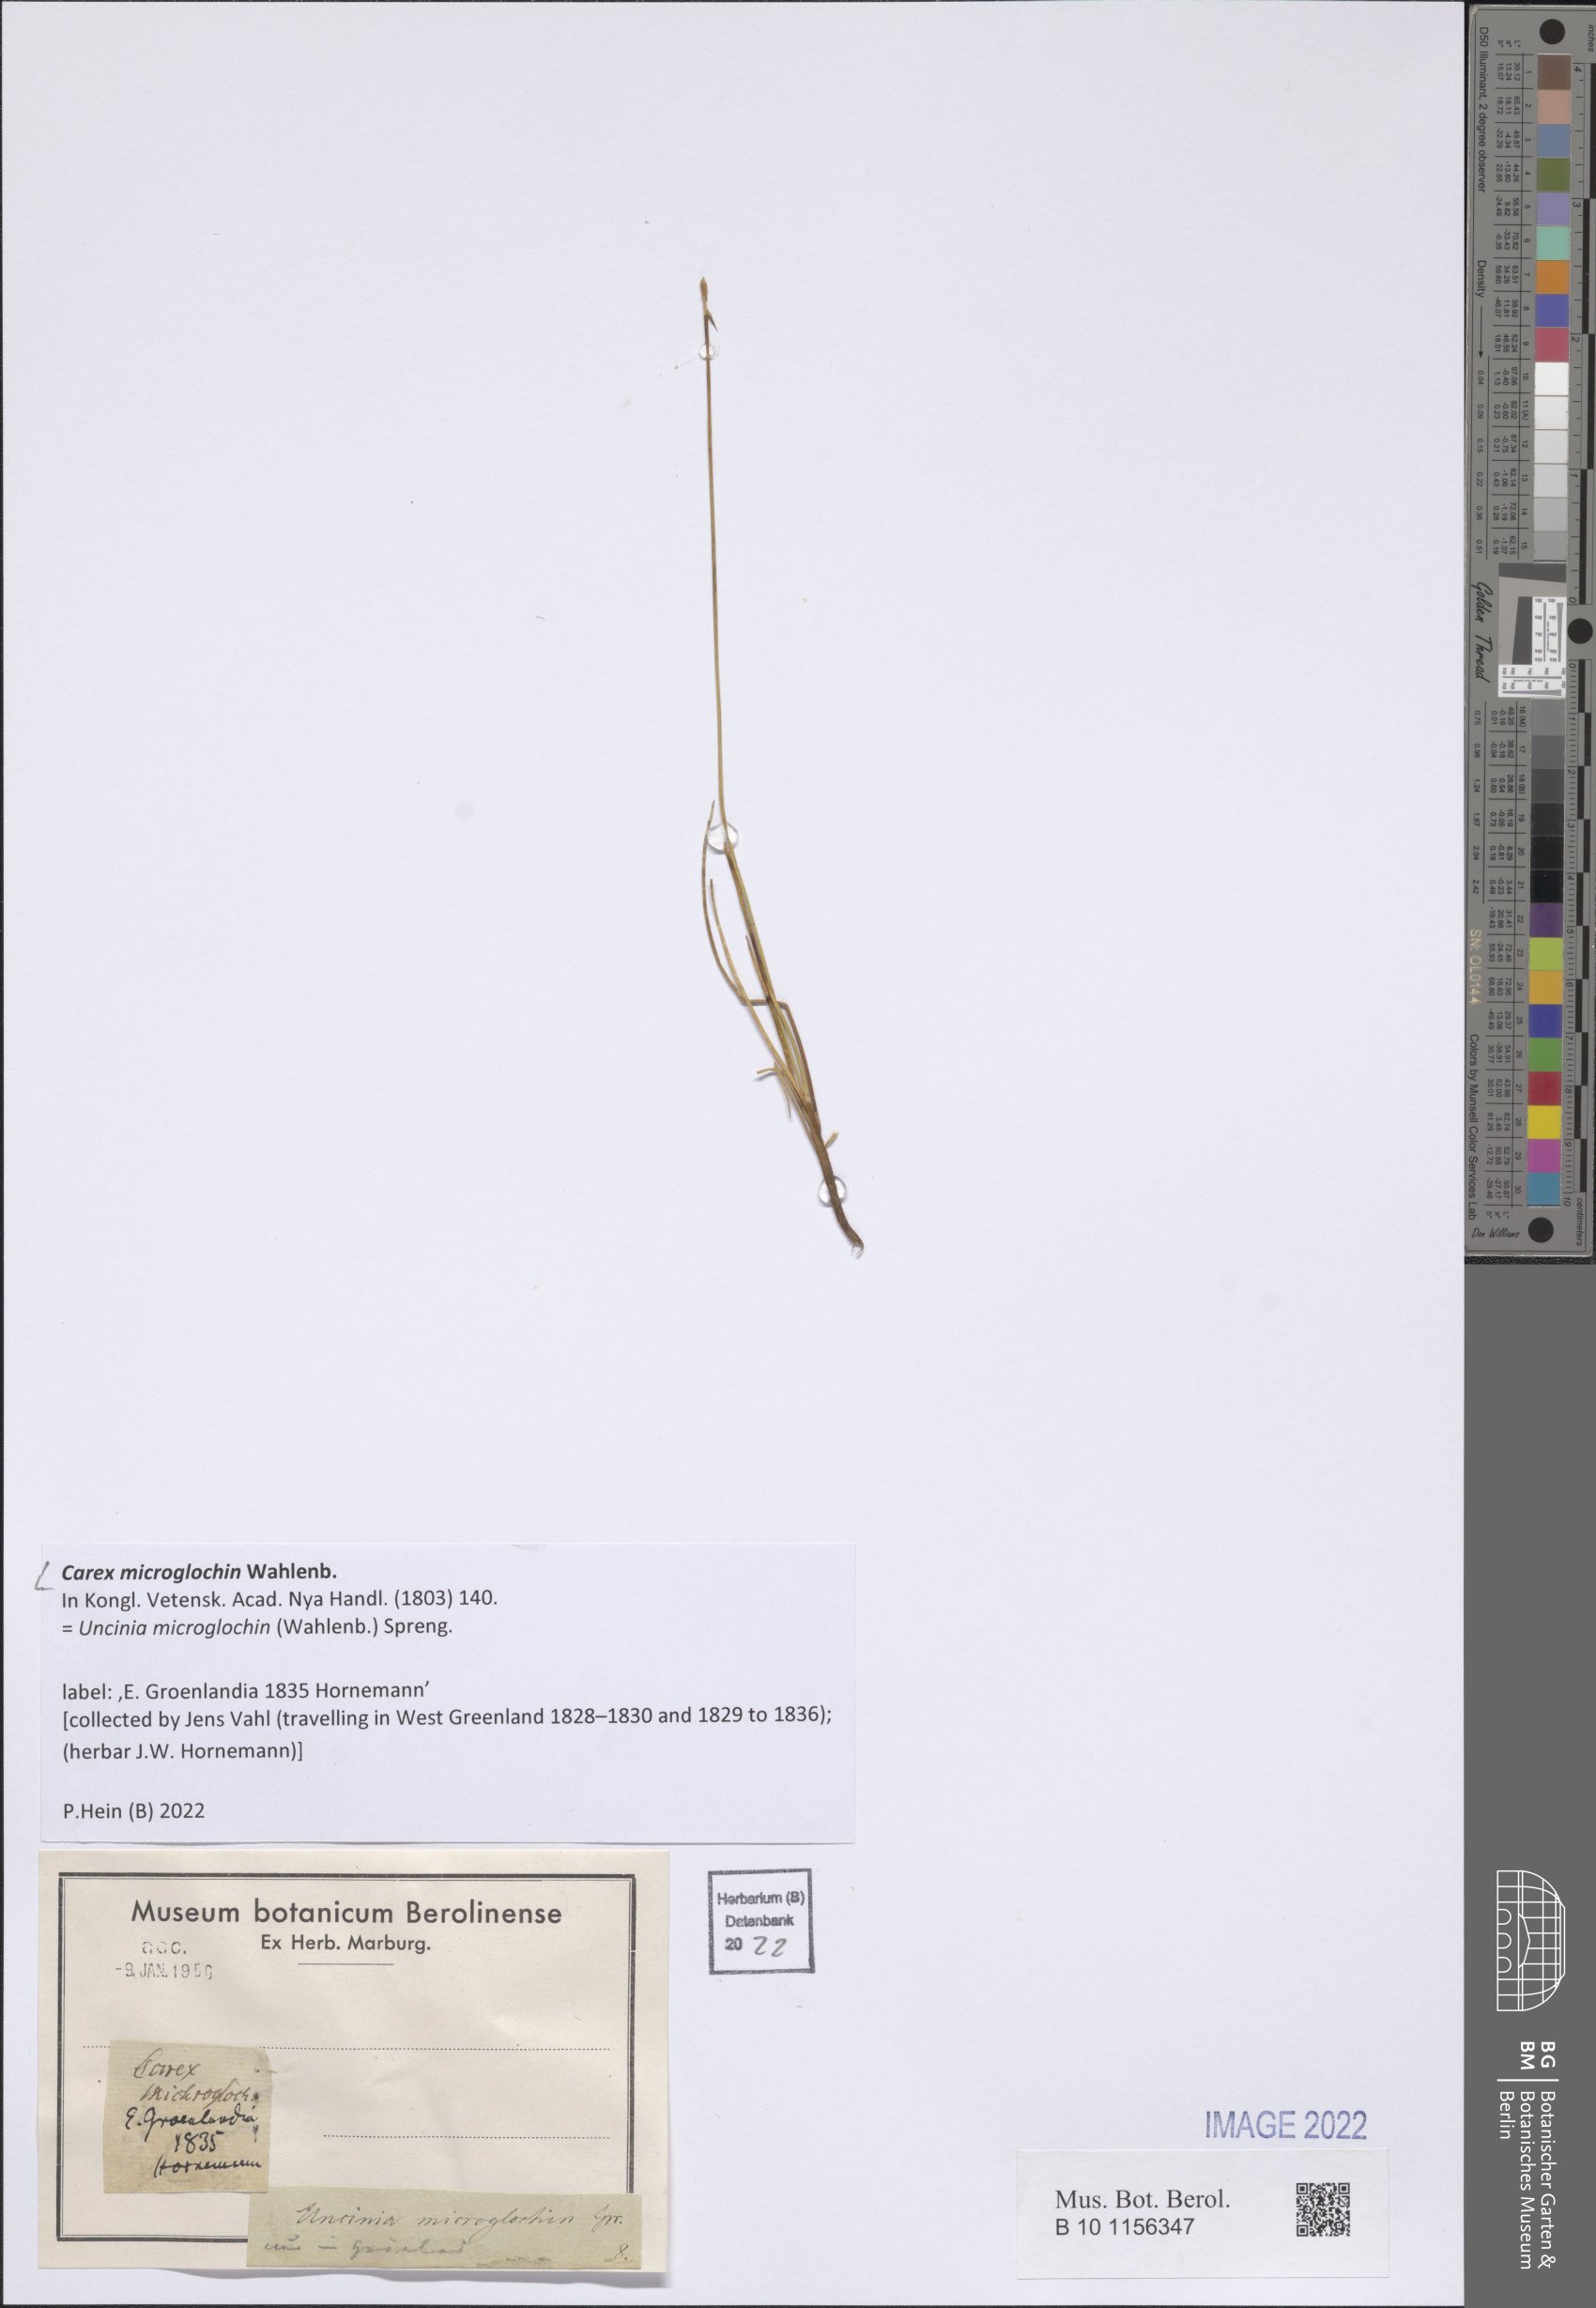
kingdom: Plantae
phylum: Tracheophyta
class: Liliopsida
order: Poales
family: Cyperaceae
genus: Carex
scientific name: Carex microglochin
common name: Bristle sedge
